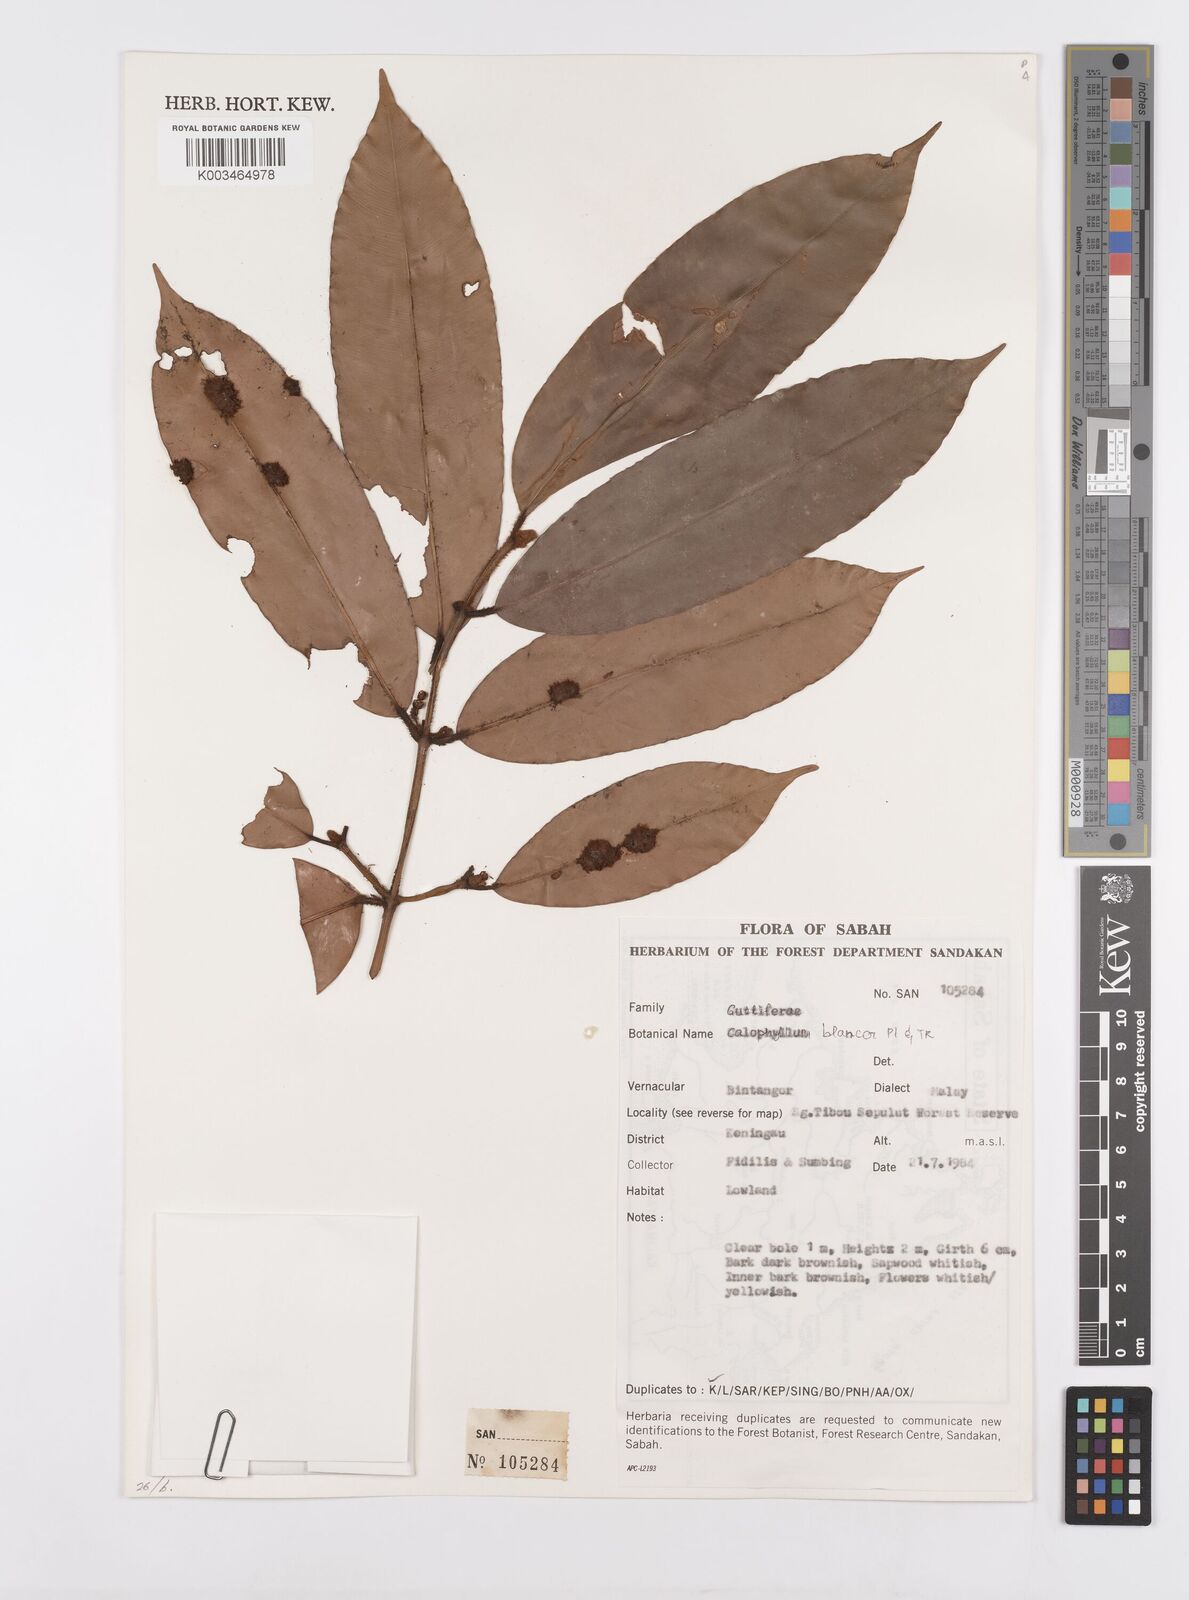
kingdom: Plantae
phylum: Tracheophyta
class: Magnoliopsida
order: Malpighiales
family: Calophyllaceae
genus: Calophyllum
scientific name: Calophyllum blancoi
